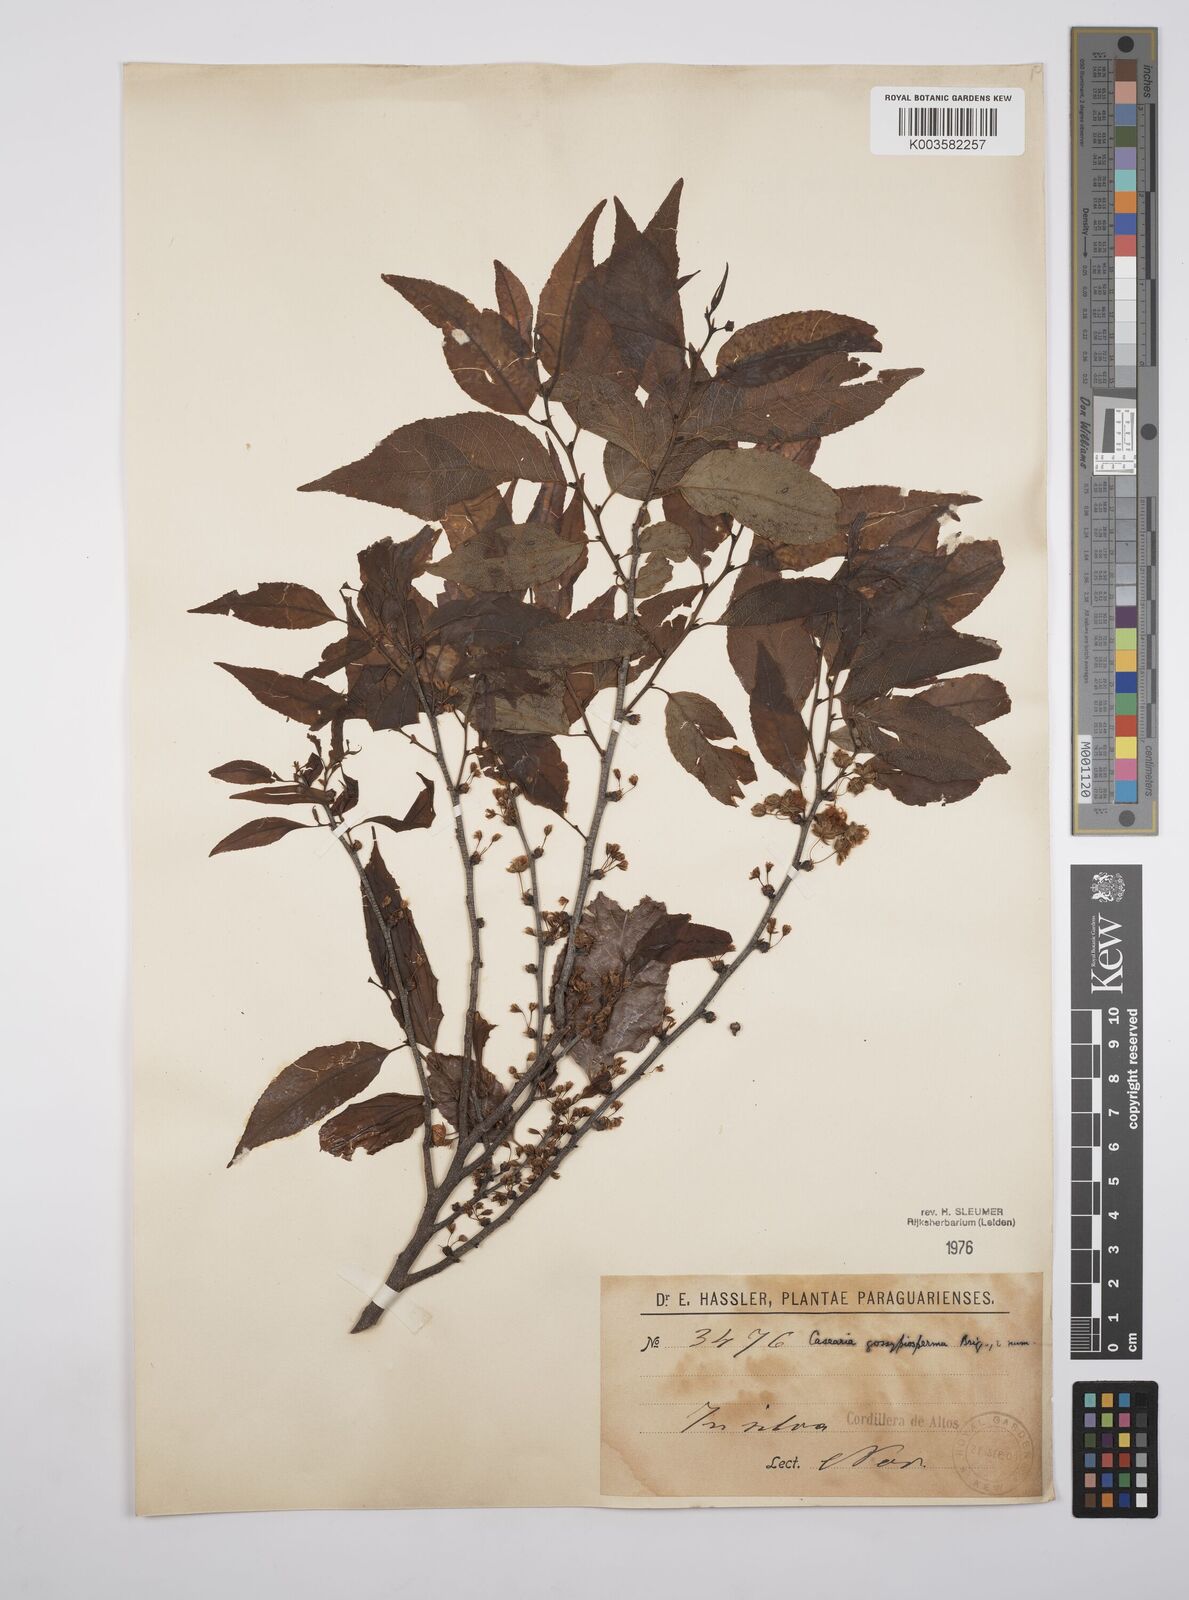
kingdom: Plantae
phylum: Tracheophyta
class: Magnoliopsida
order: Malpighiales
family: Salicaceae
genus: Casearia
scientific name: Casearia gossypiosperma
